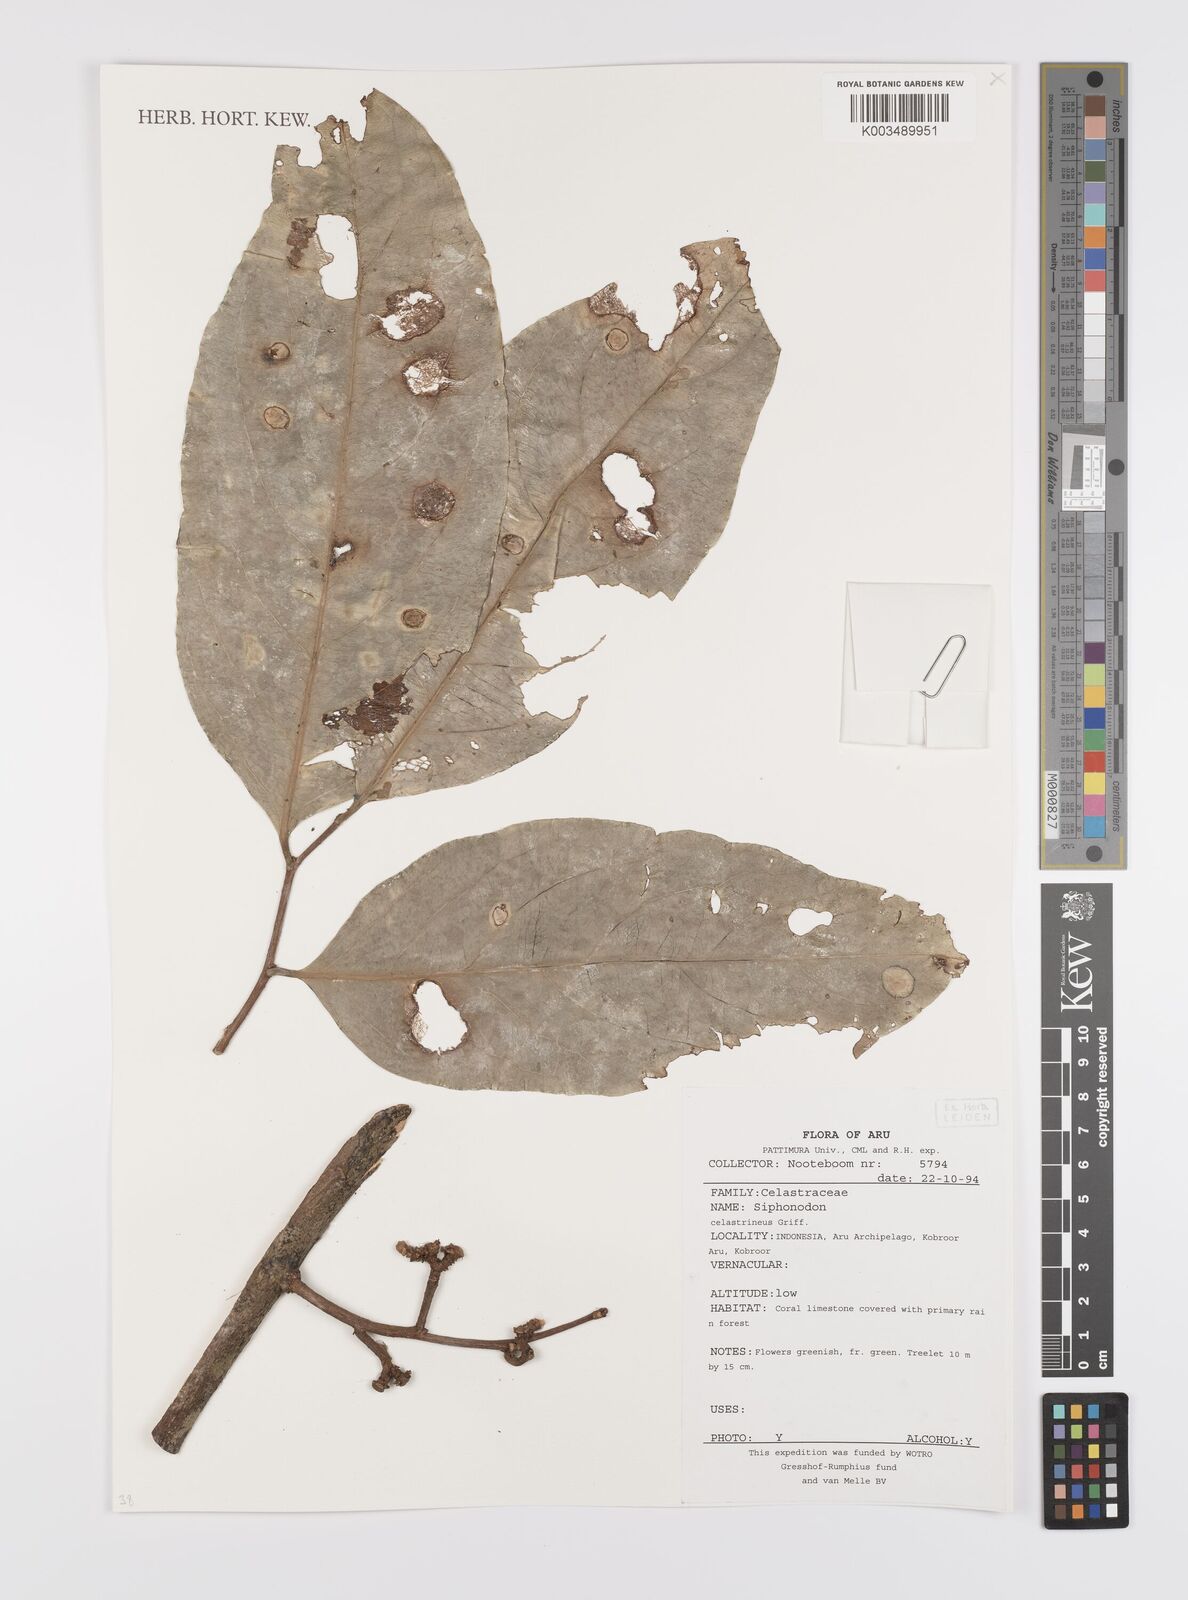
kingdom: Plantae
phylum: Tracheophyta
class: Magnoliopsida
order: Celastrales
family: Celastraceae
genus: Siphonodon
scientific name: Siphonodon celastrineus
